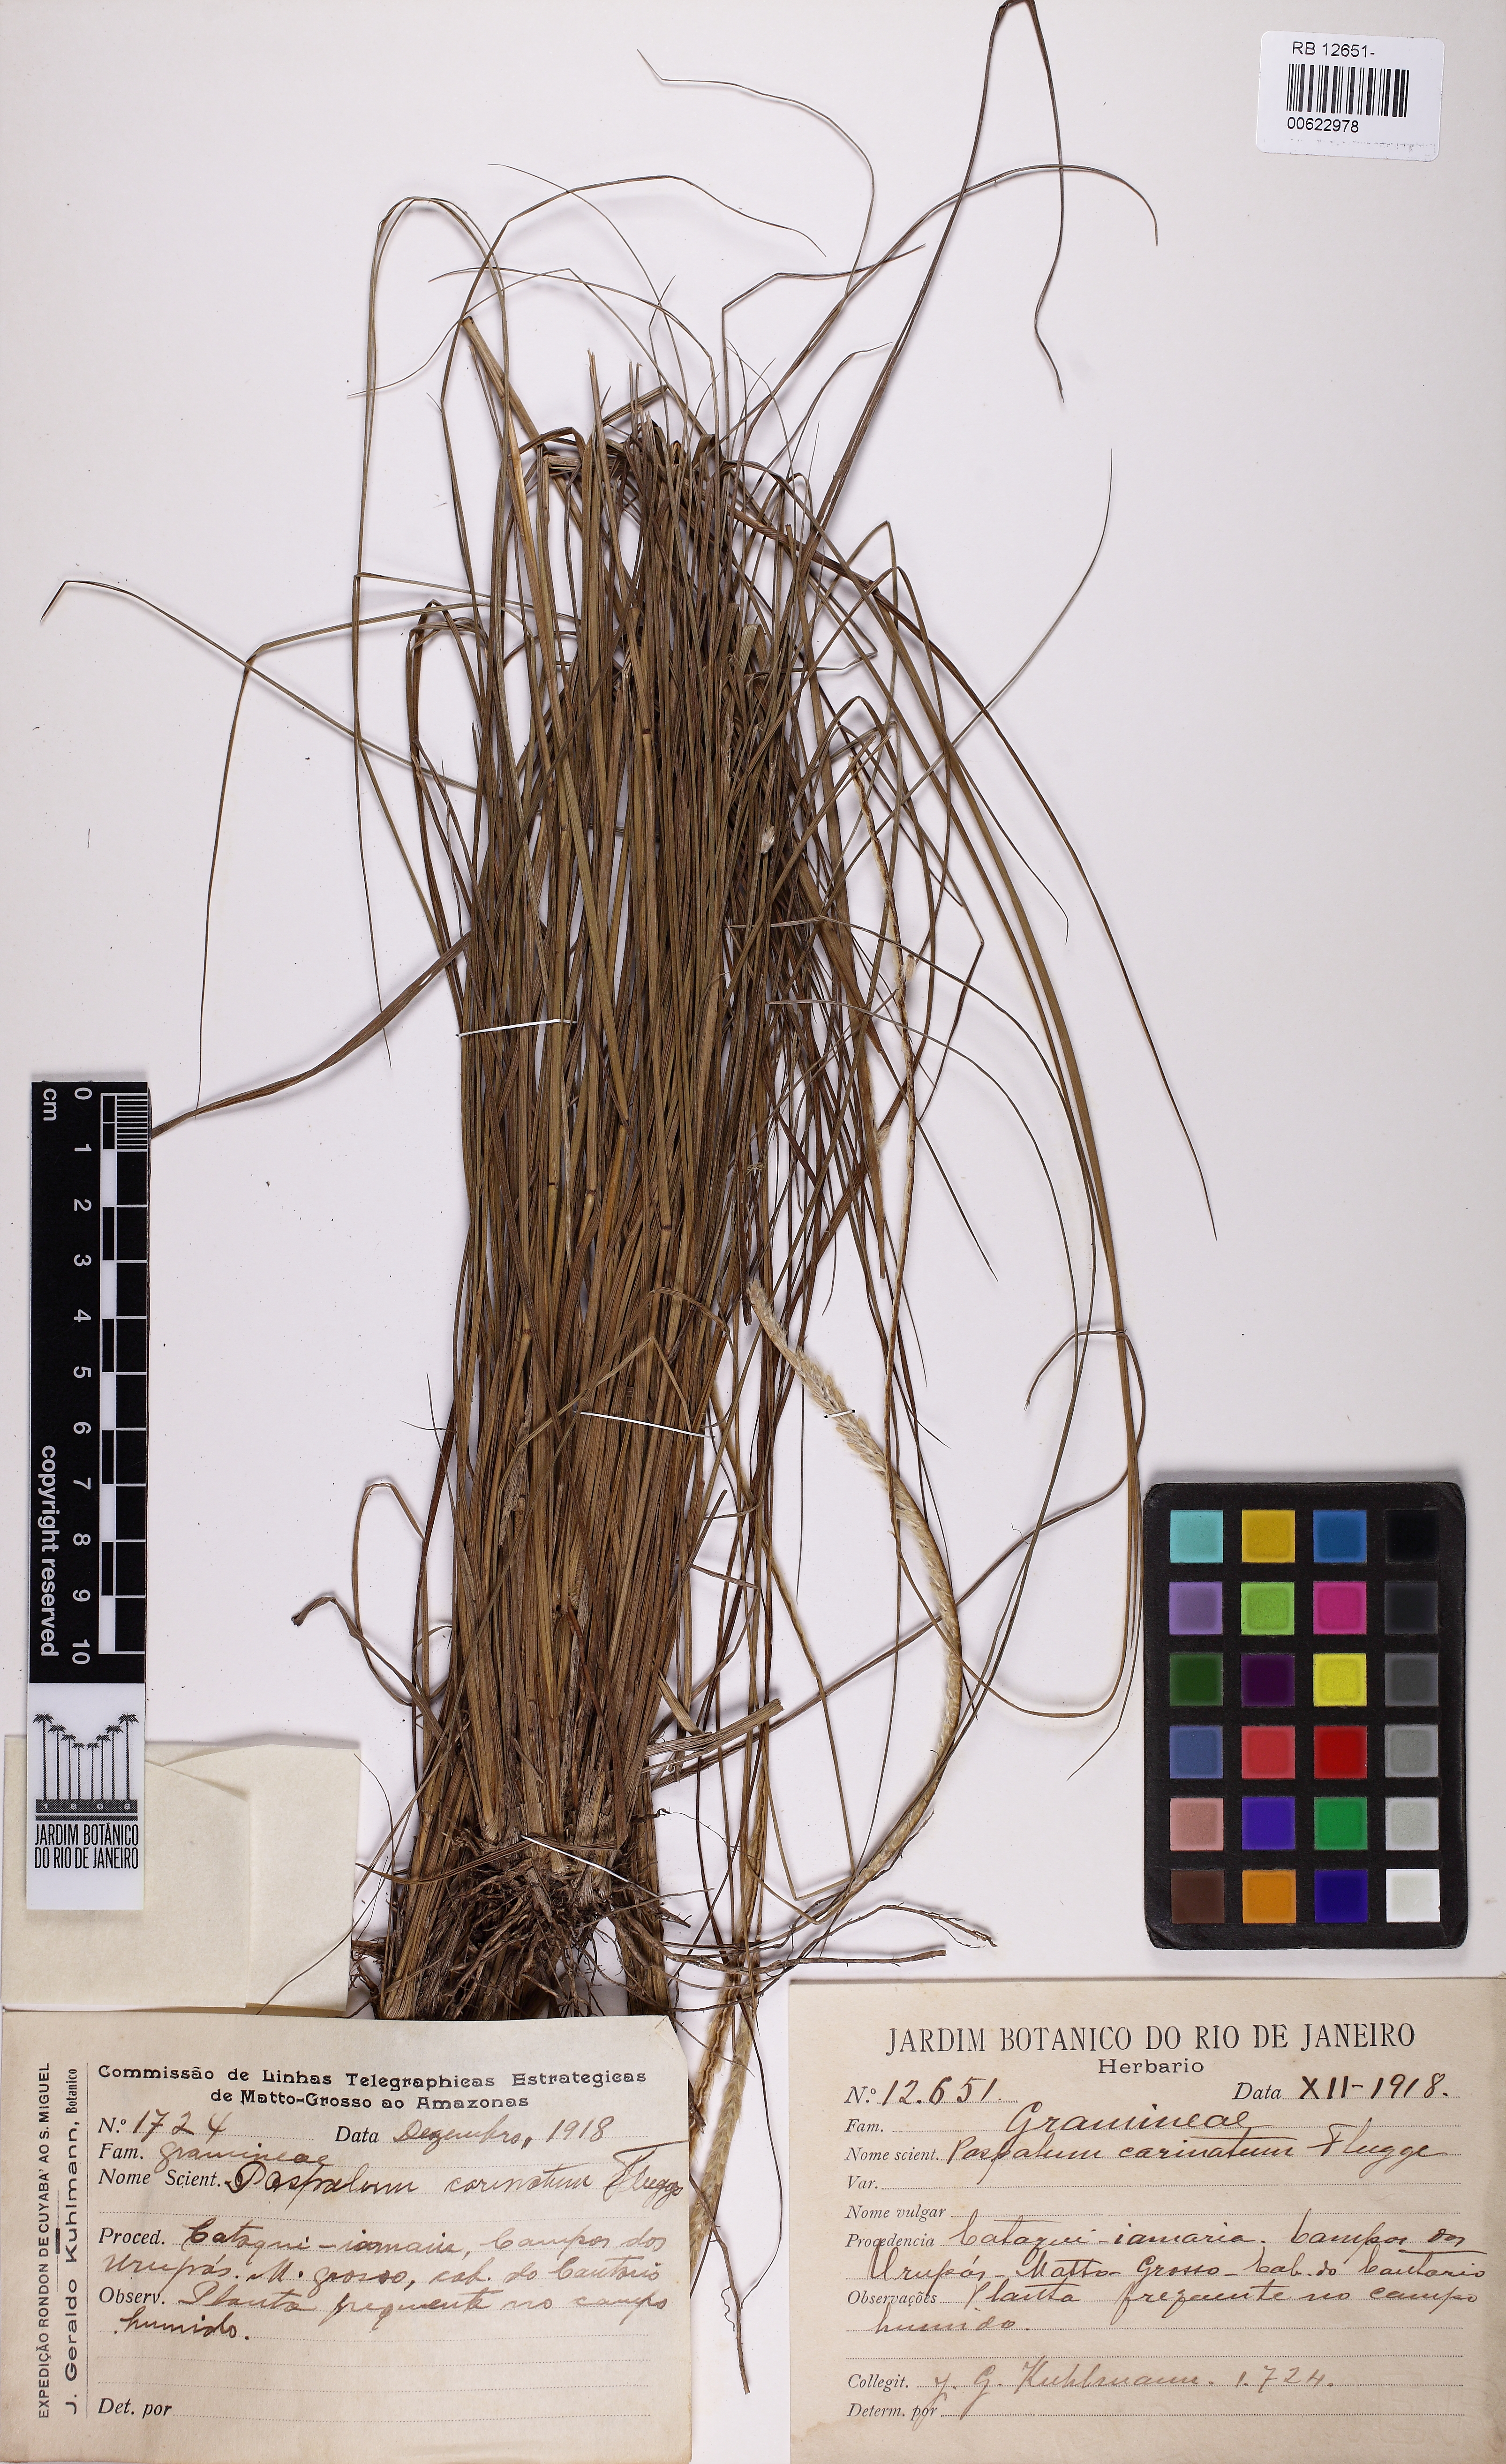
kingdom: Plantae
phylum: Tracheophyta
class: Liliopsida
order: Poales
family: Poaceae
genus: Paspalum
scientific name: Paspalum carinatum
